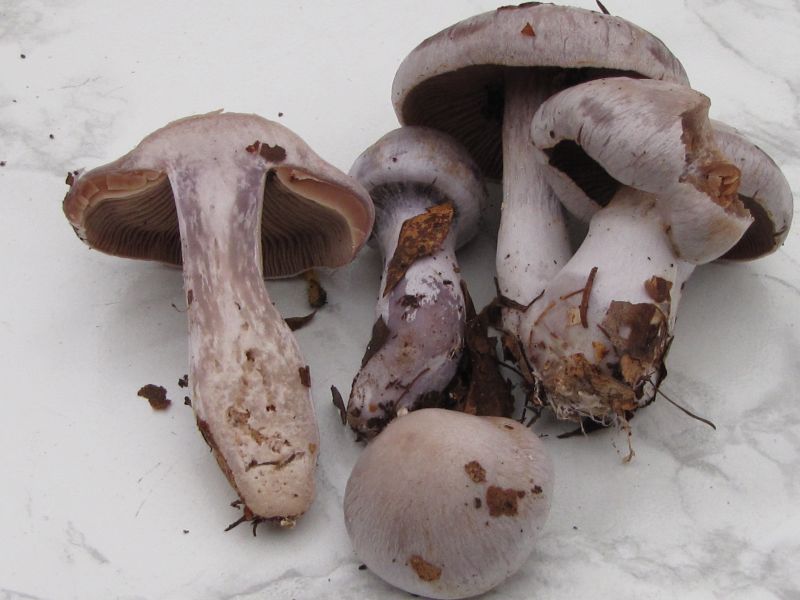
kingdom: Fungi
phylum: Basidiomycota
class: Agaricomycetes
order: Agaricales
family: Cortinariaceae
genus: Cortinarius
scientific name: Cortinarius alboviolaceus
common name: lysviolet slørhat
